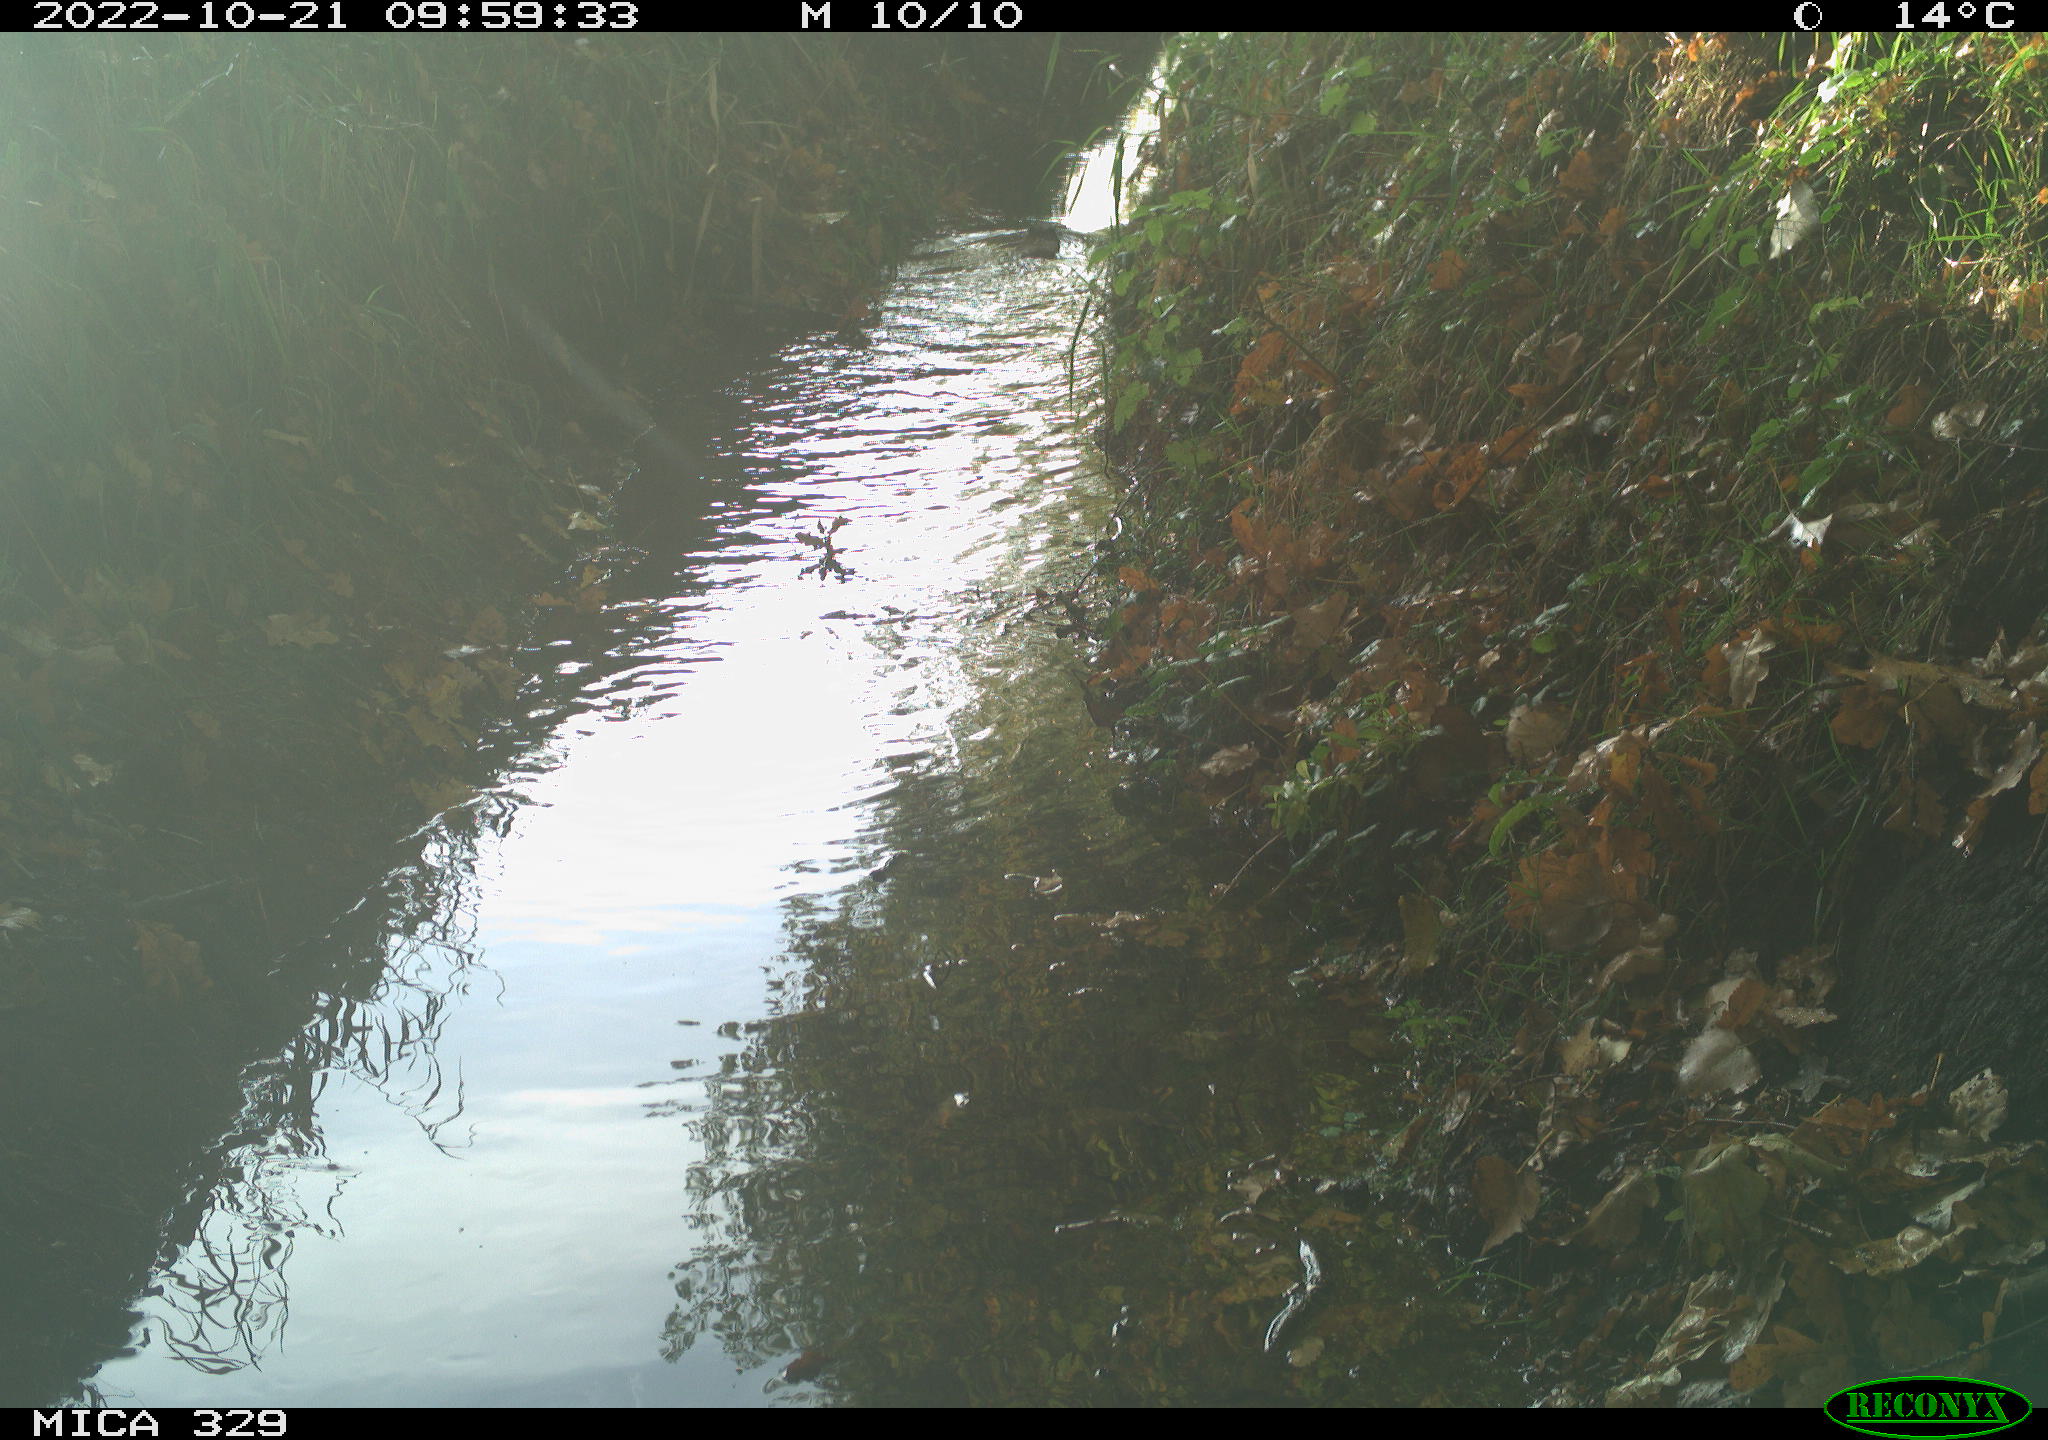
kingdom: Animalia
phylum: Chordata
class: Mammalia
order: Rodentia
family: Cricetidae
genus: Ondatra
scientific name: Ondatra zibethicus
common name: Muskrat
